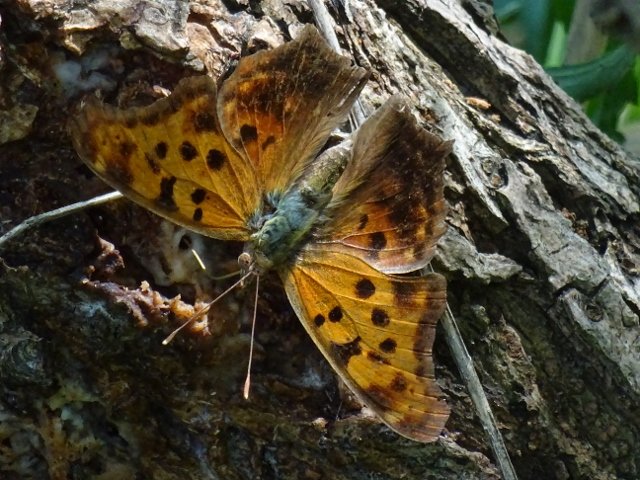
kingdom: Animalia
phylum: Arthropoda
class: Insecta
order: Lepidoptera
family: Nymphalidae
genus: Polygonia
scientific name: Polygonia interrogationis
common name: Question Mark
